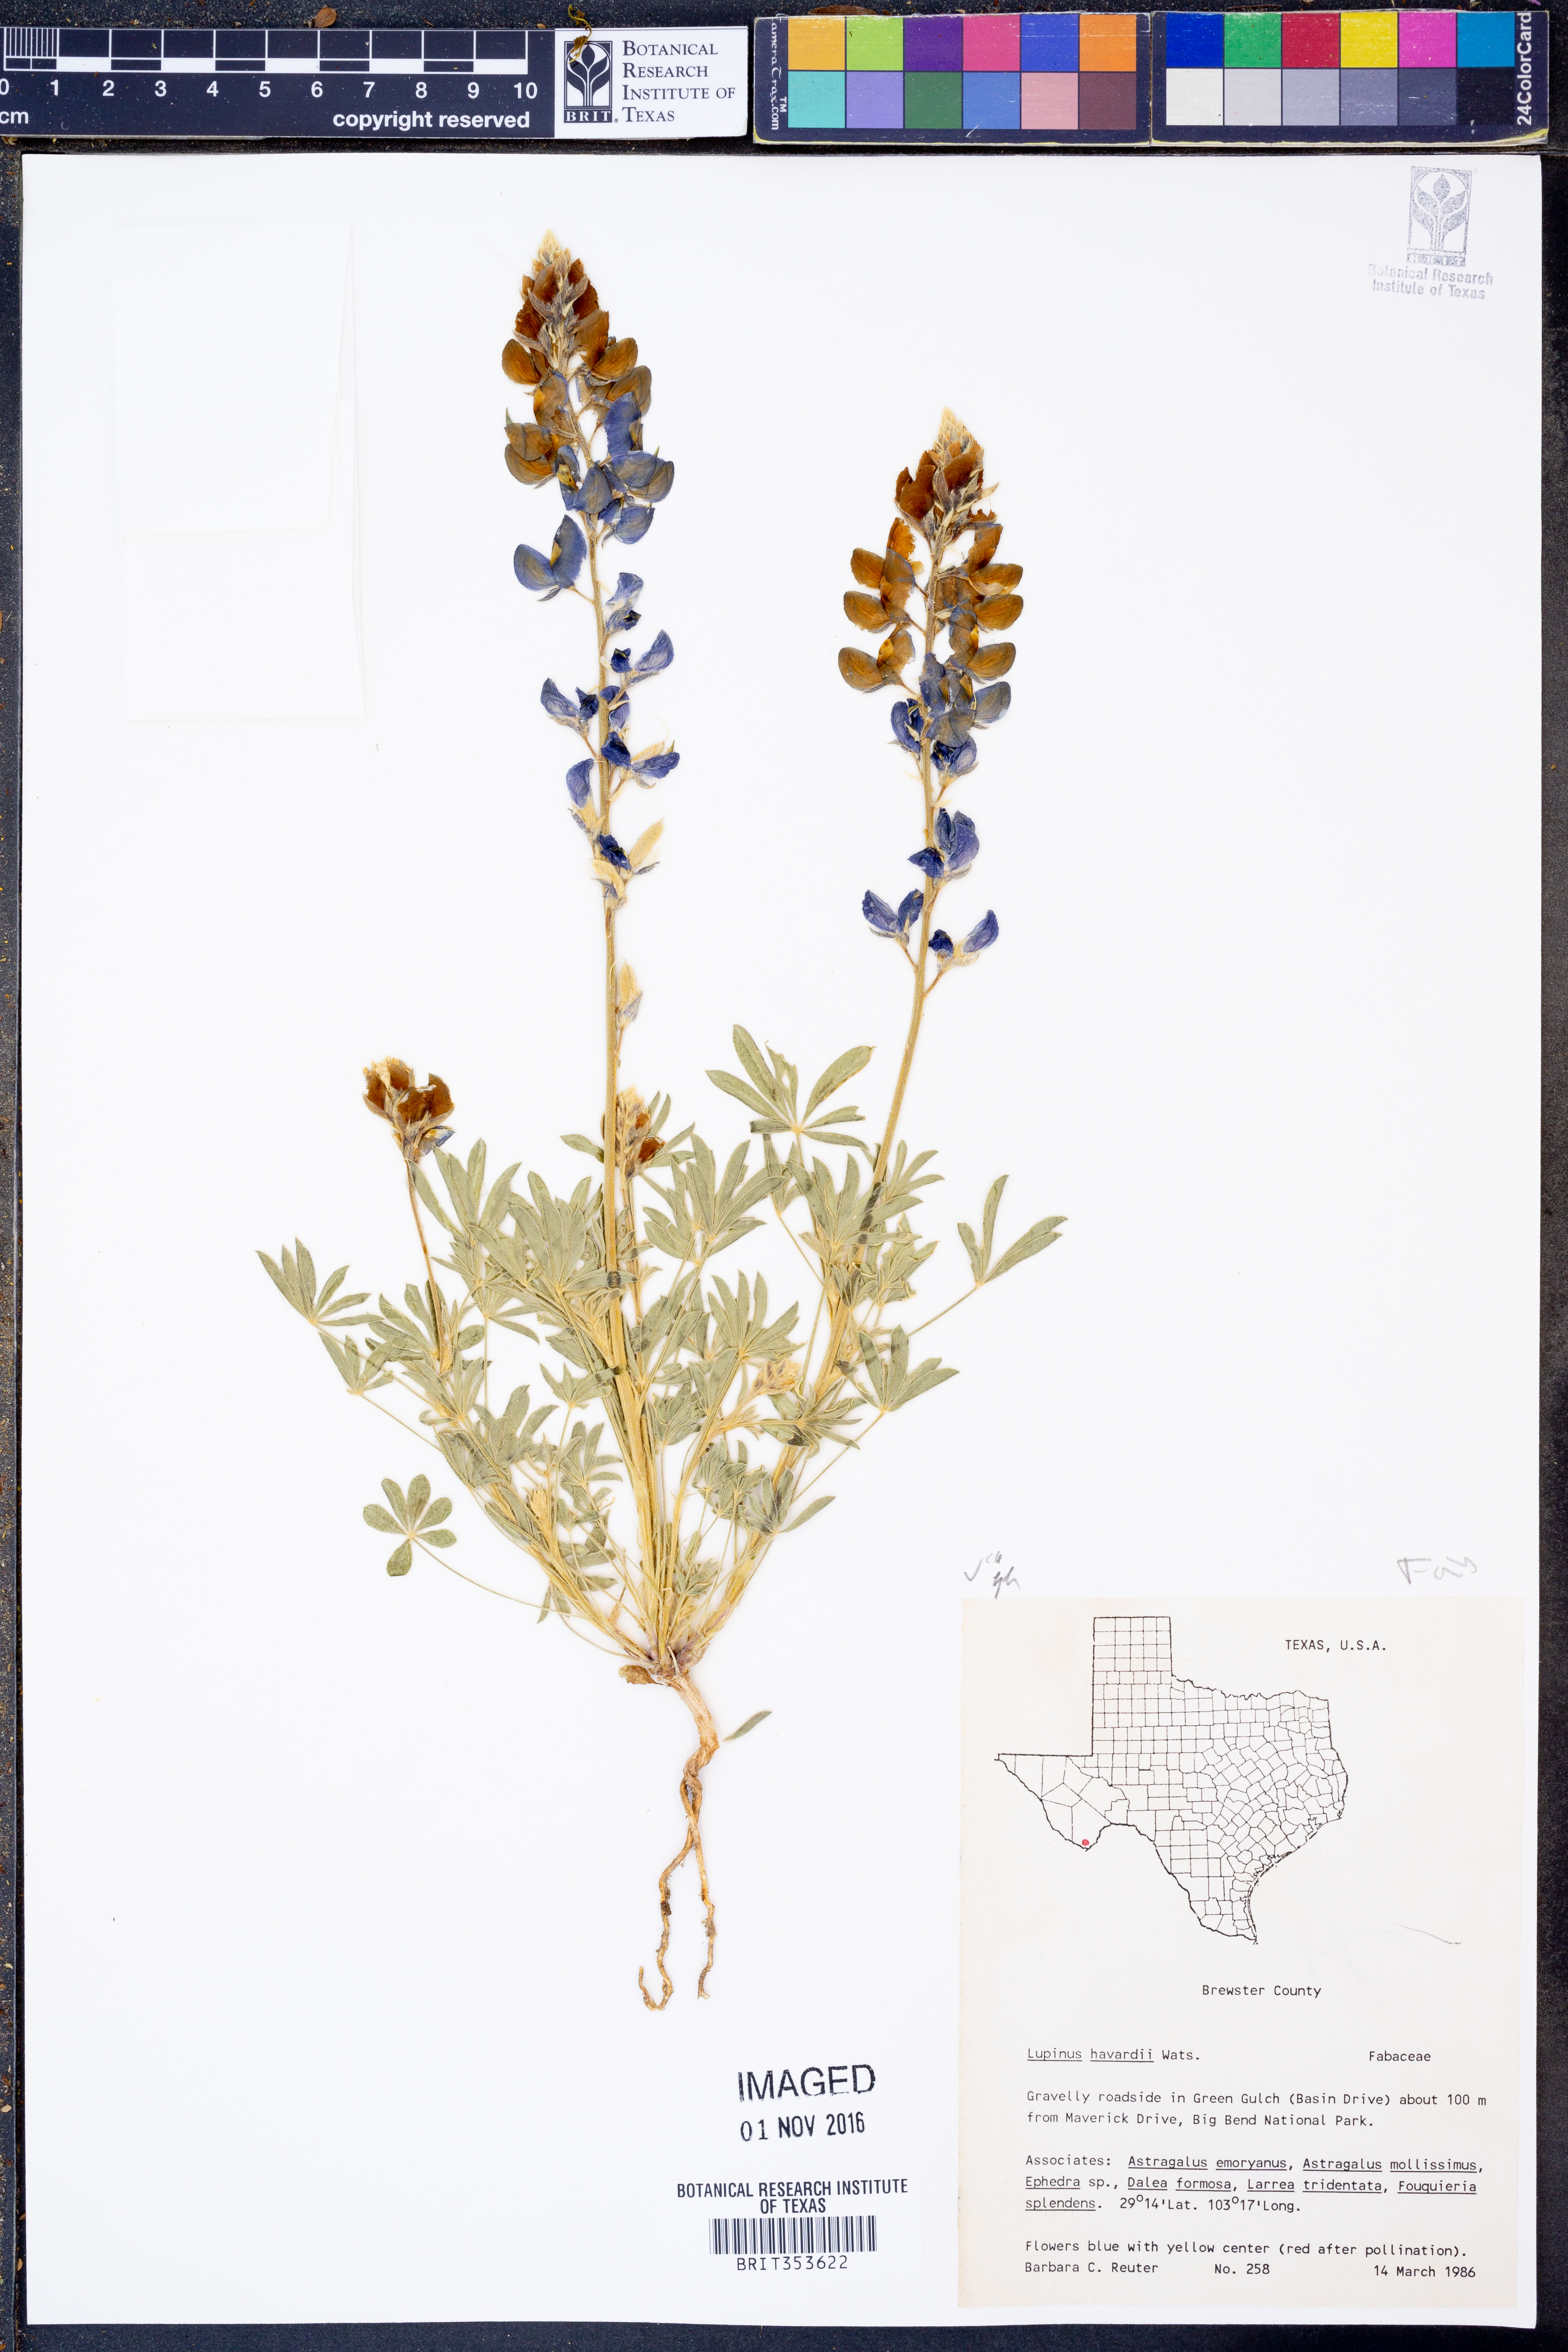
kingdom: Plantae
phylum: Tracheophyta
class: Magnoliopsida
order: Fabales
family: Fabaceae
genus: Lupinus
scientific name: Lupinus havardii
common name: Chisos bluebonnet
